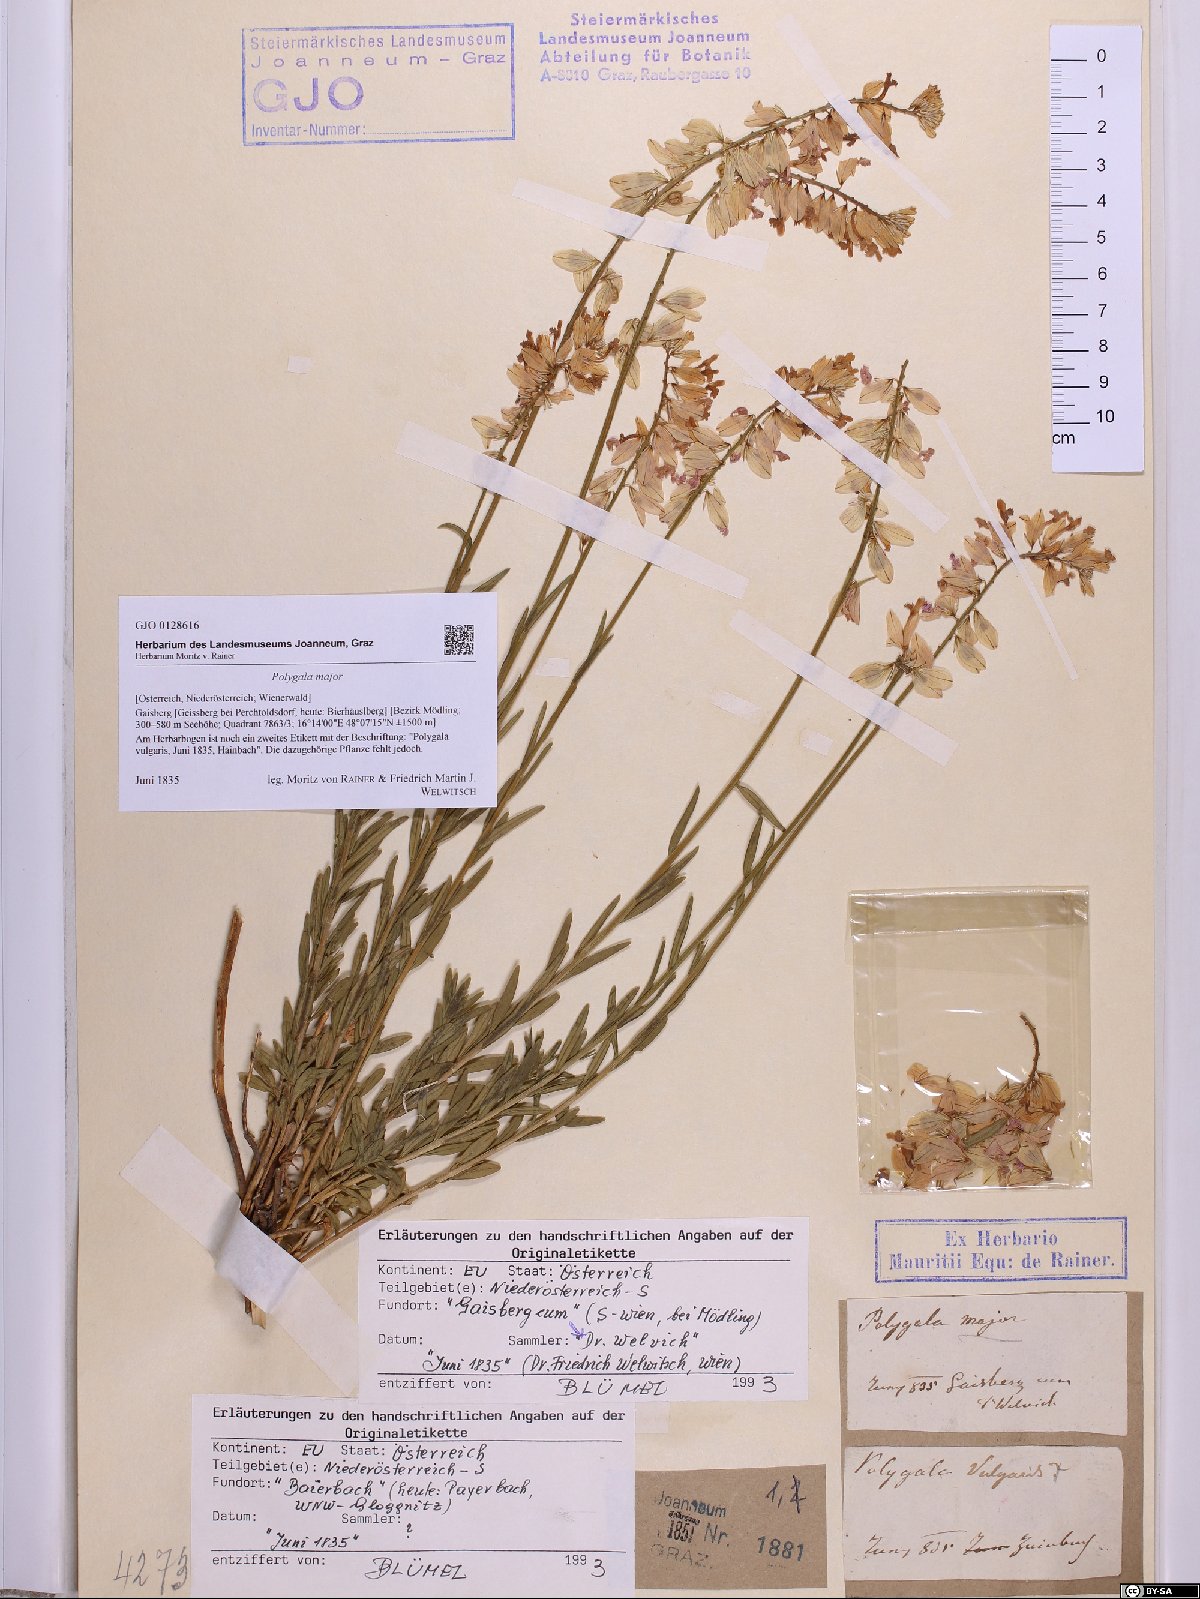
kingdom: Plantae
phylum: Tracheophyta
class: Magnoliopsida
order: Fabales
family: Polygalaceae
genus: Polygala
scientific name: Polygala major
